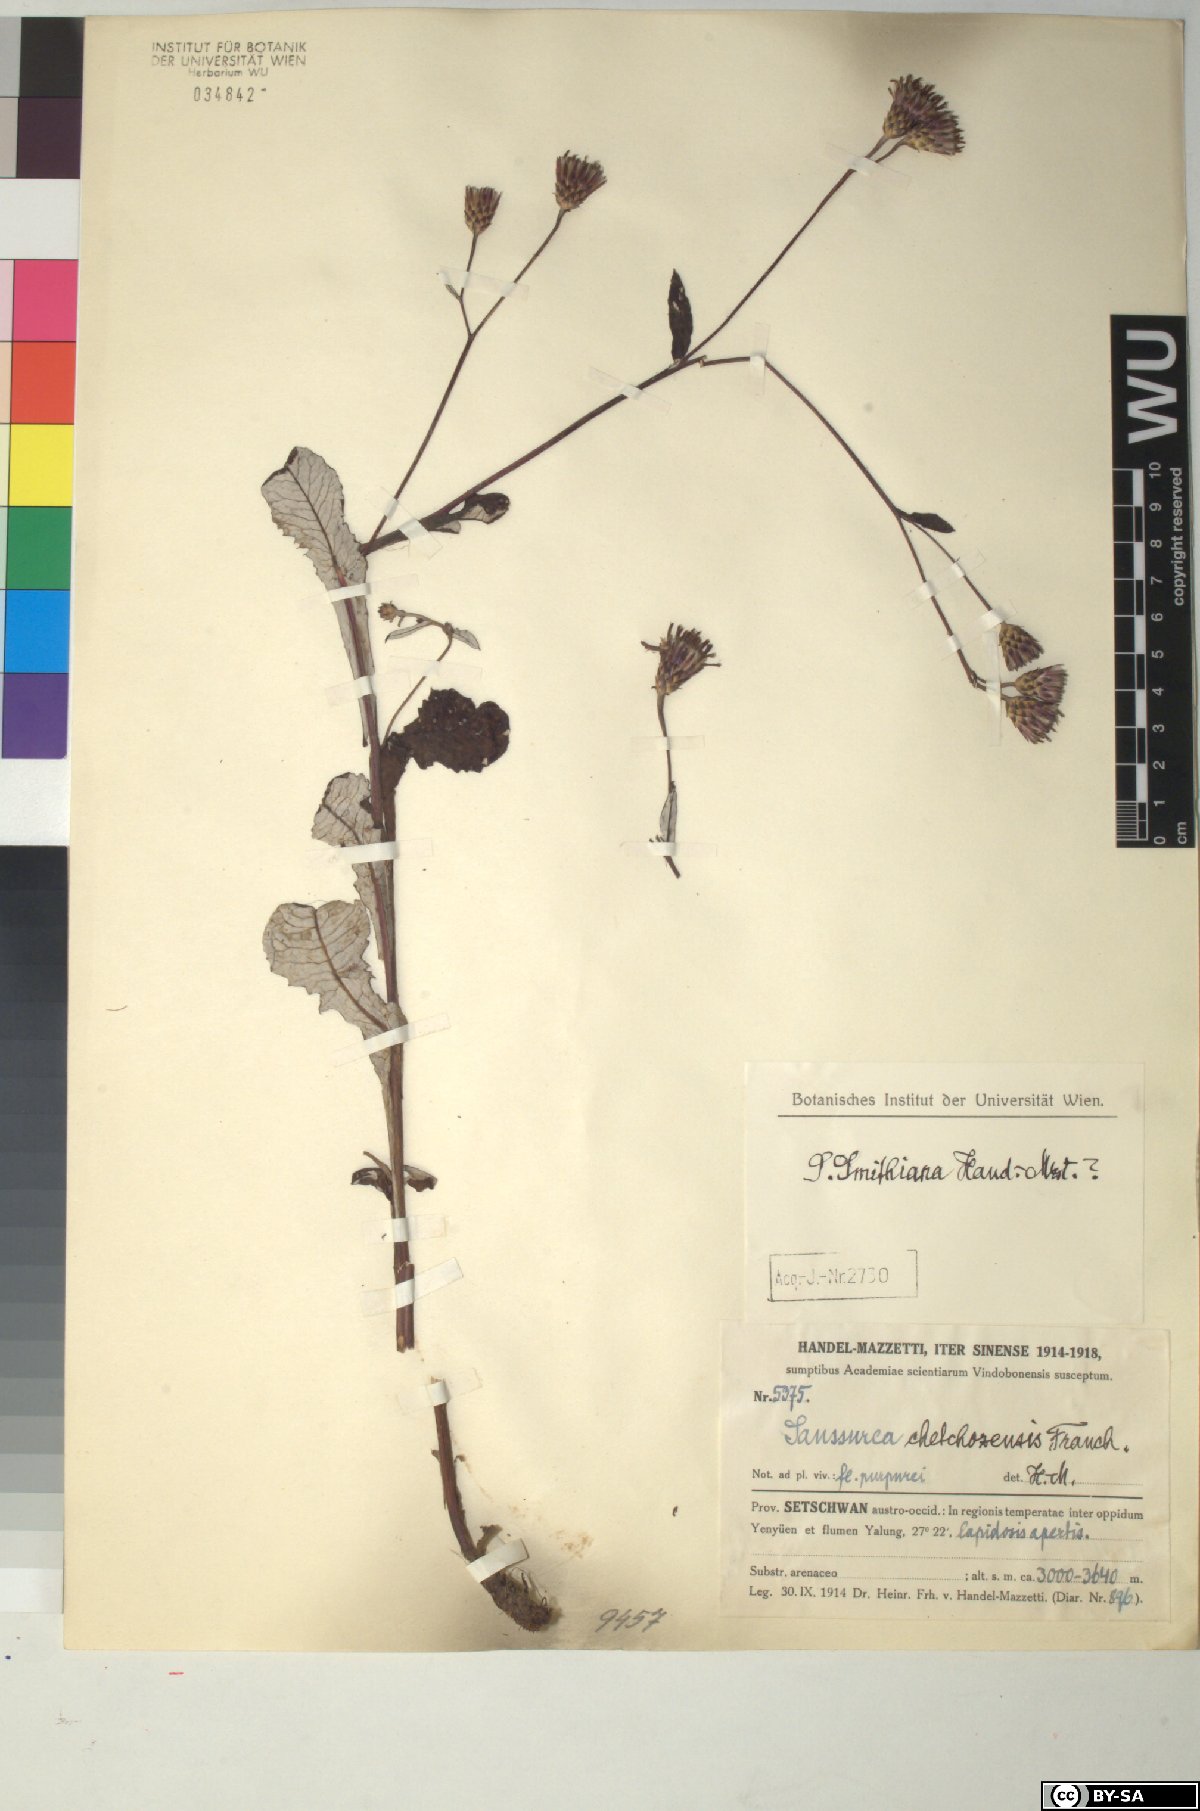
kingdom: Plantae
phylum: Tracheophyta
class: Magnoliopsida
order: Asterales
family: Asteraceae
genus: Saussurea
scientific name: Saussurea chetchozensis
